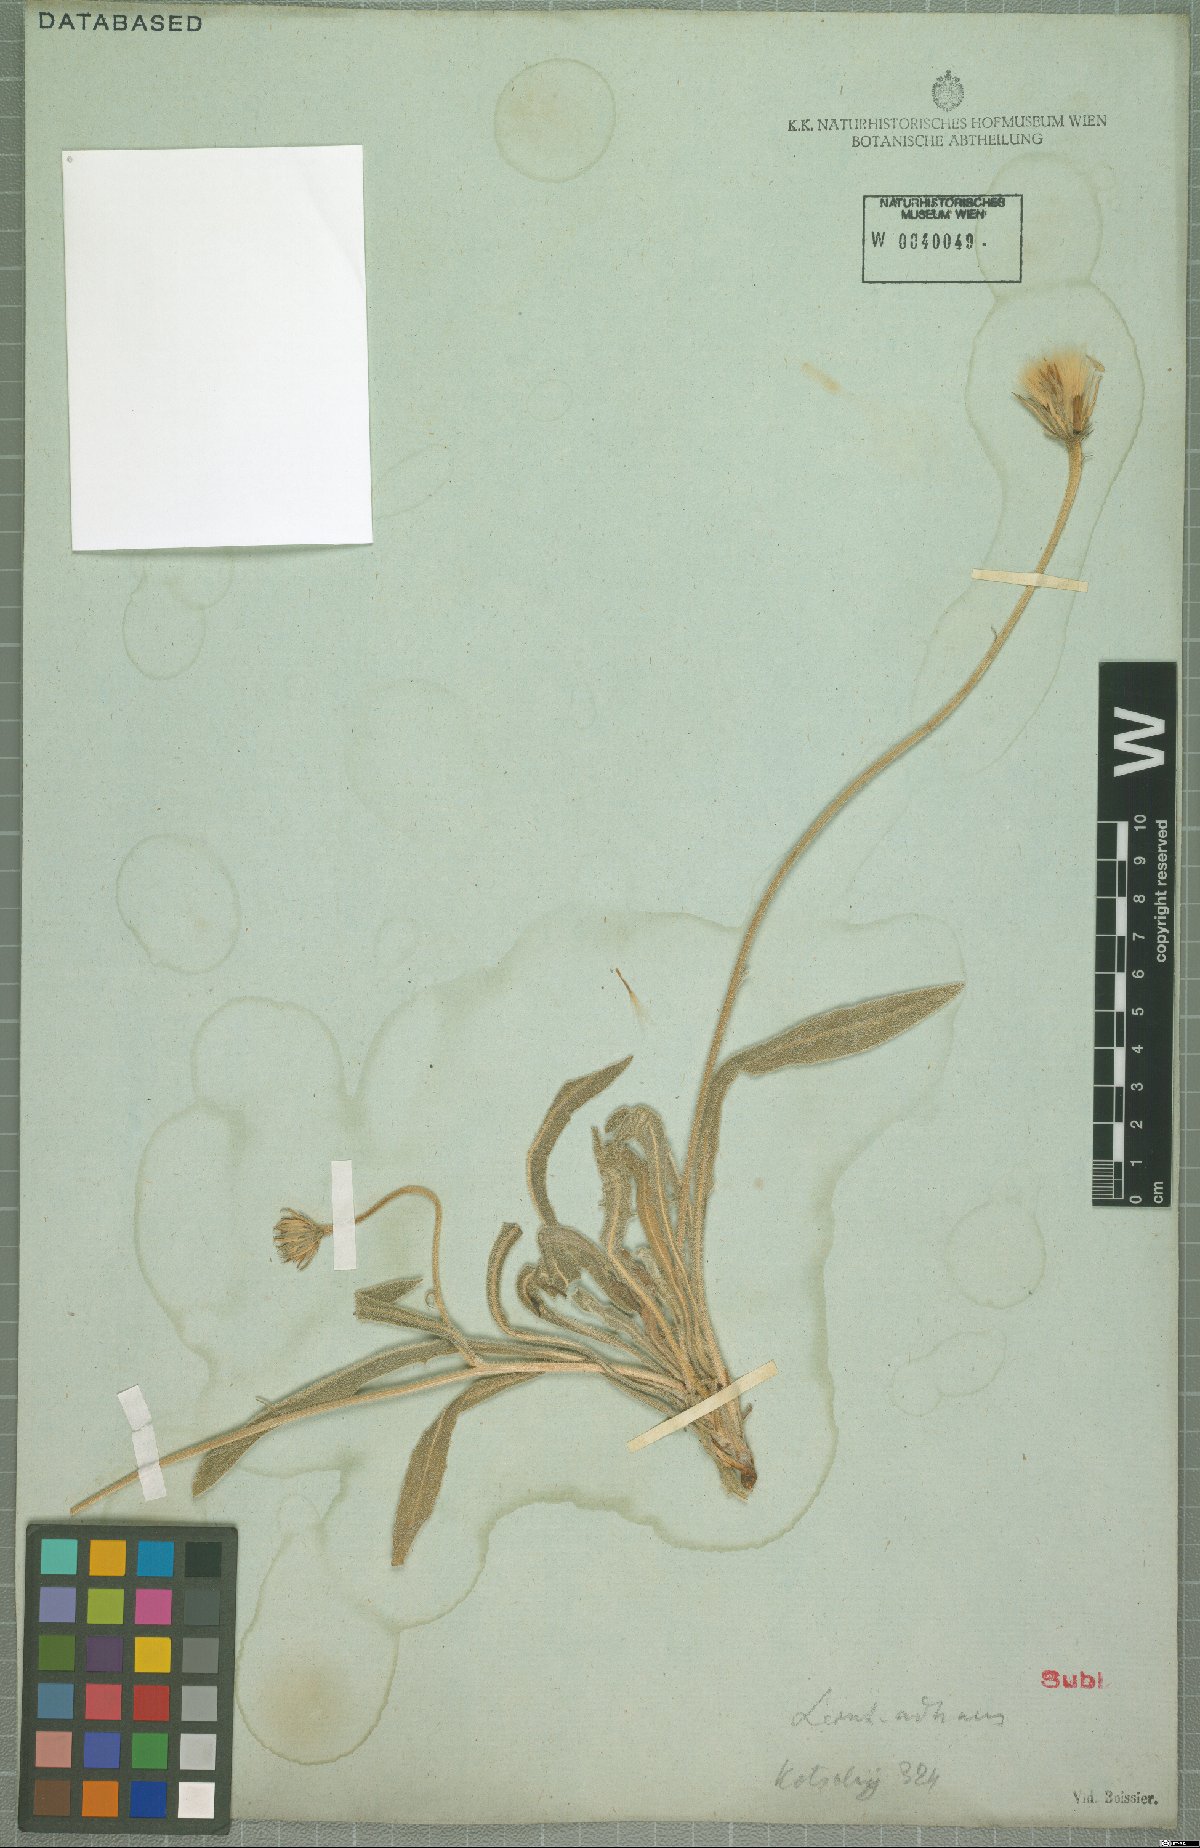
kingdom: Plantae
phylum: Tracheophyta
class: Magnoliopsida
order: Asterales
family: Asteraceae
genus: Leontodon
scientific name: Leontodon oxylepis
